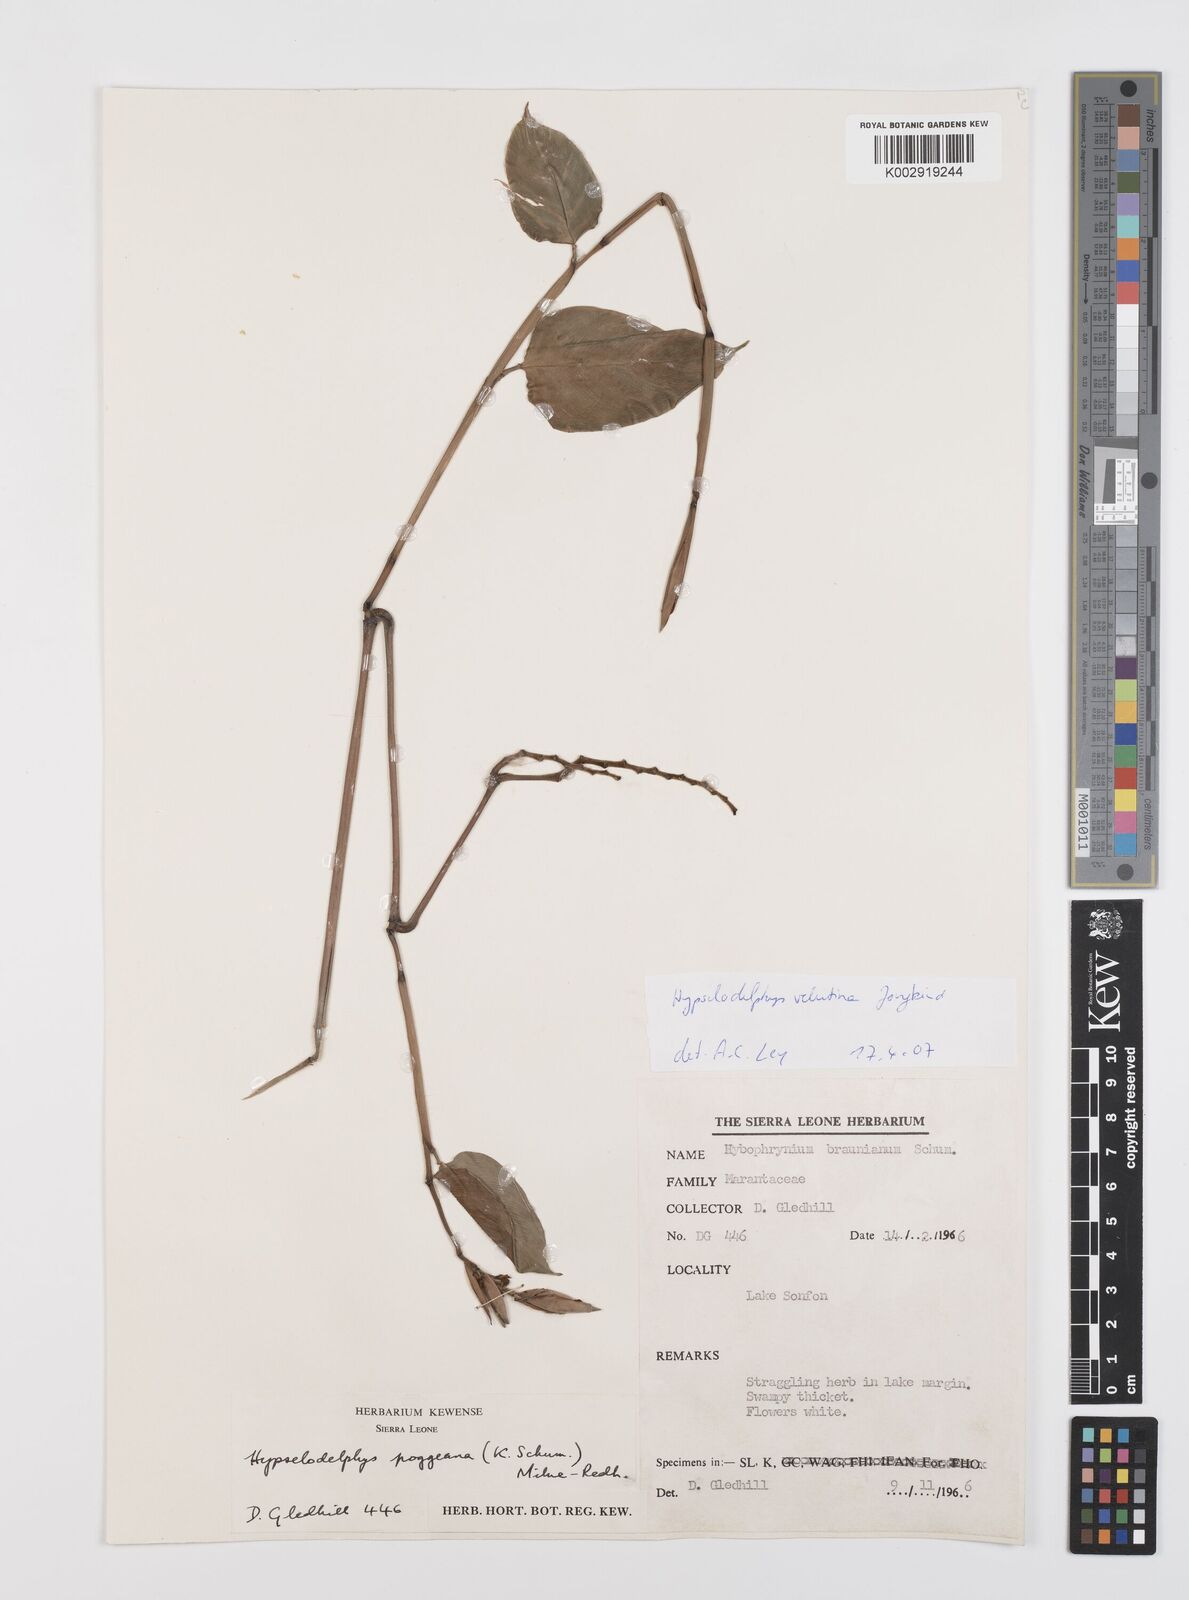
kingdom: Plantae
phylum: Tracheophyta
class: Liliopsida
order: Zingiberales
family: Marantaceae
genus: Hypselodelphys
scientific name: Hypselodelphys velutina
